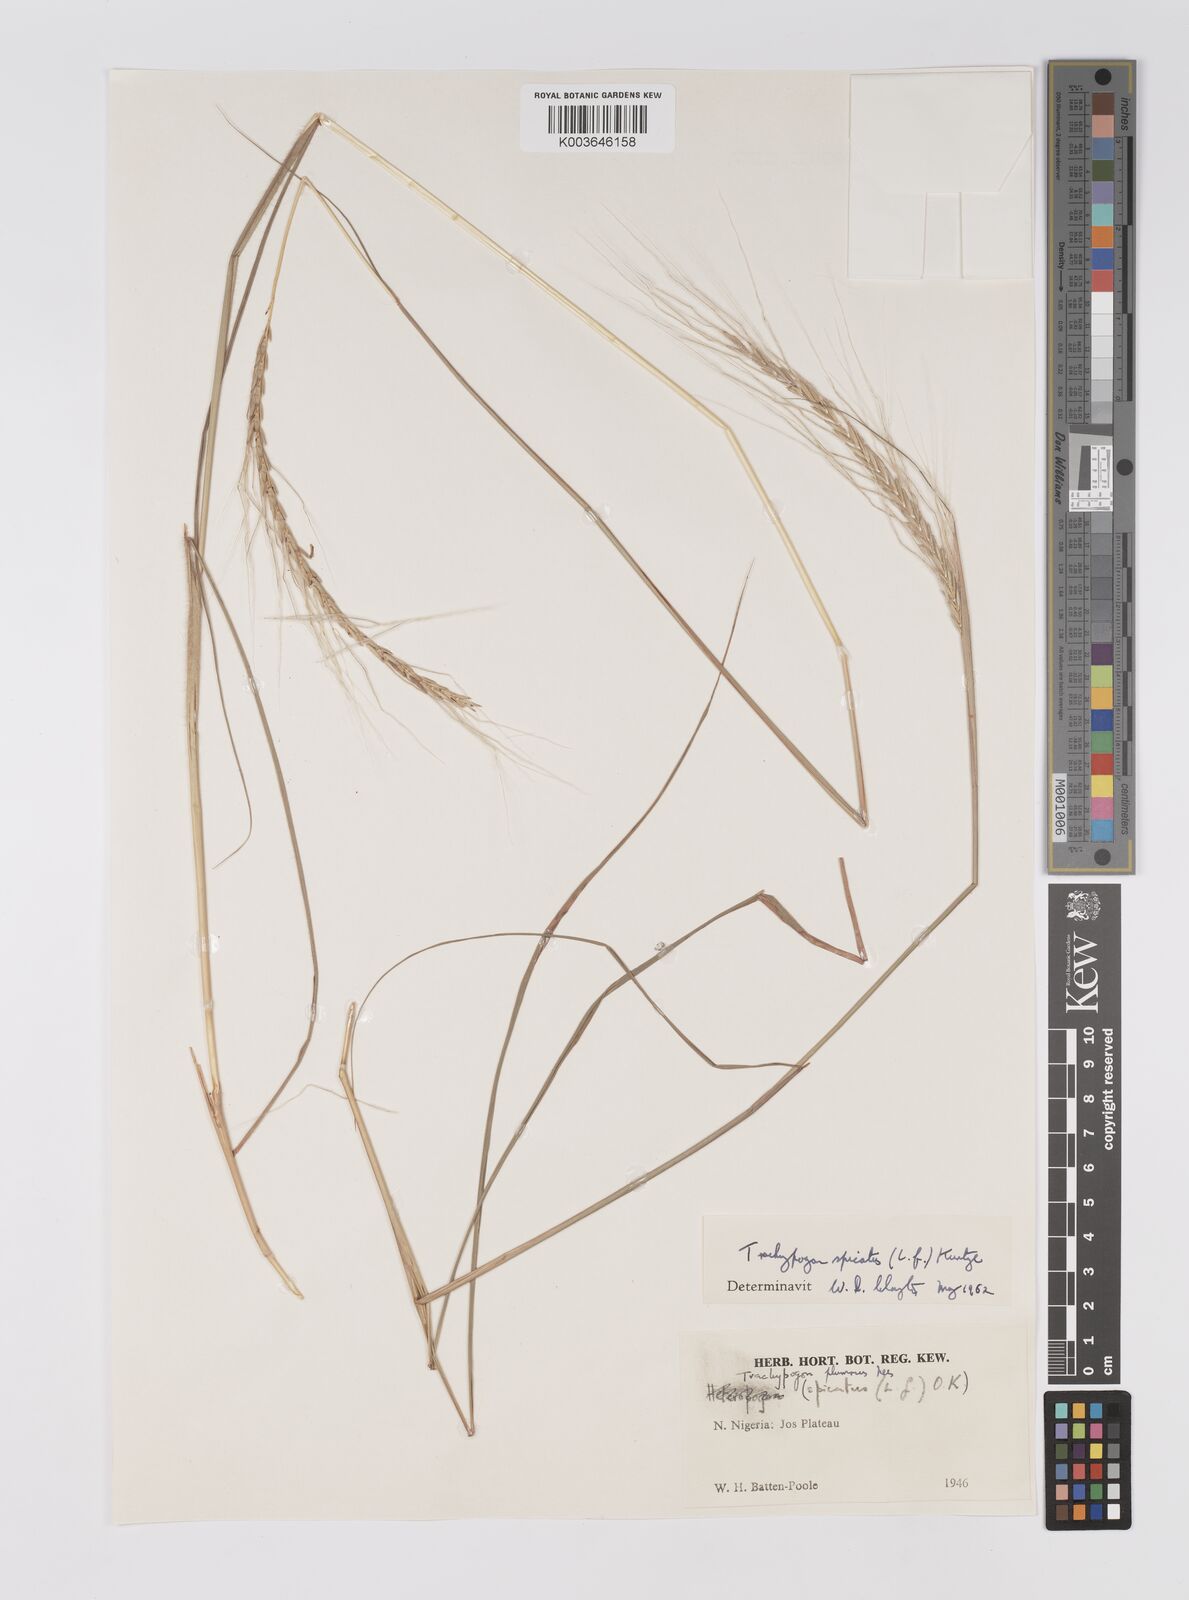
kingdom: Plantae
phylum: Tracheophyta
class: Liliopsida
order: Poales
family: Poaceae
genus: Trachypogon
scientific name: Trachypogon spicatus
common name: Crinkle-awn
